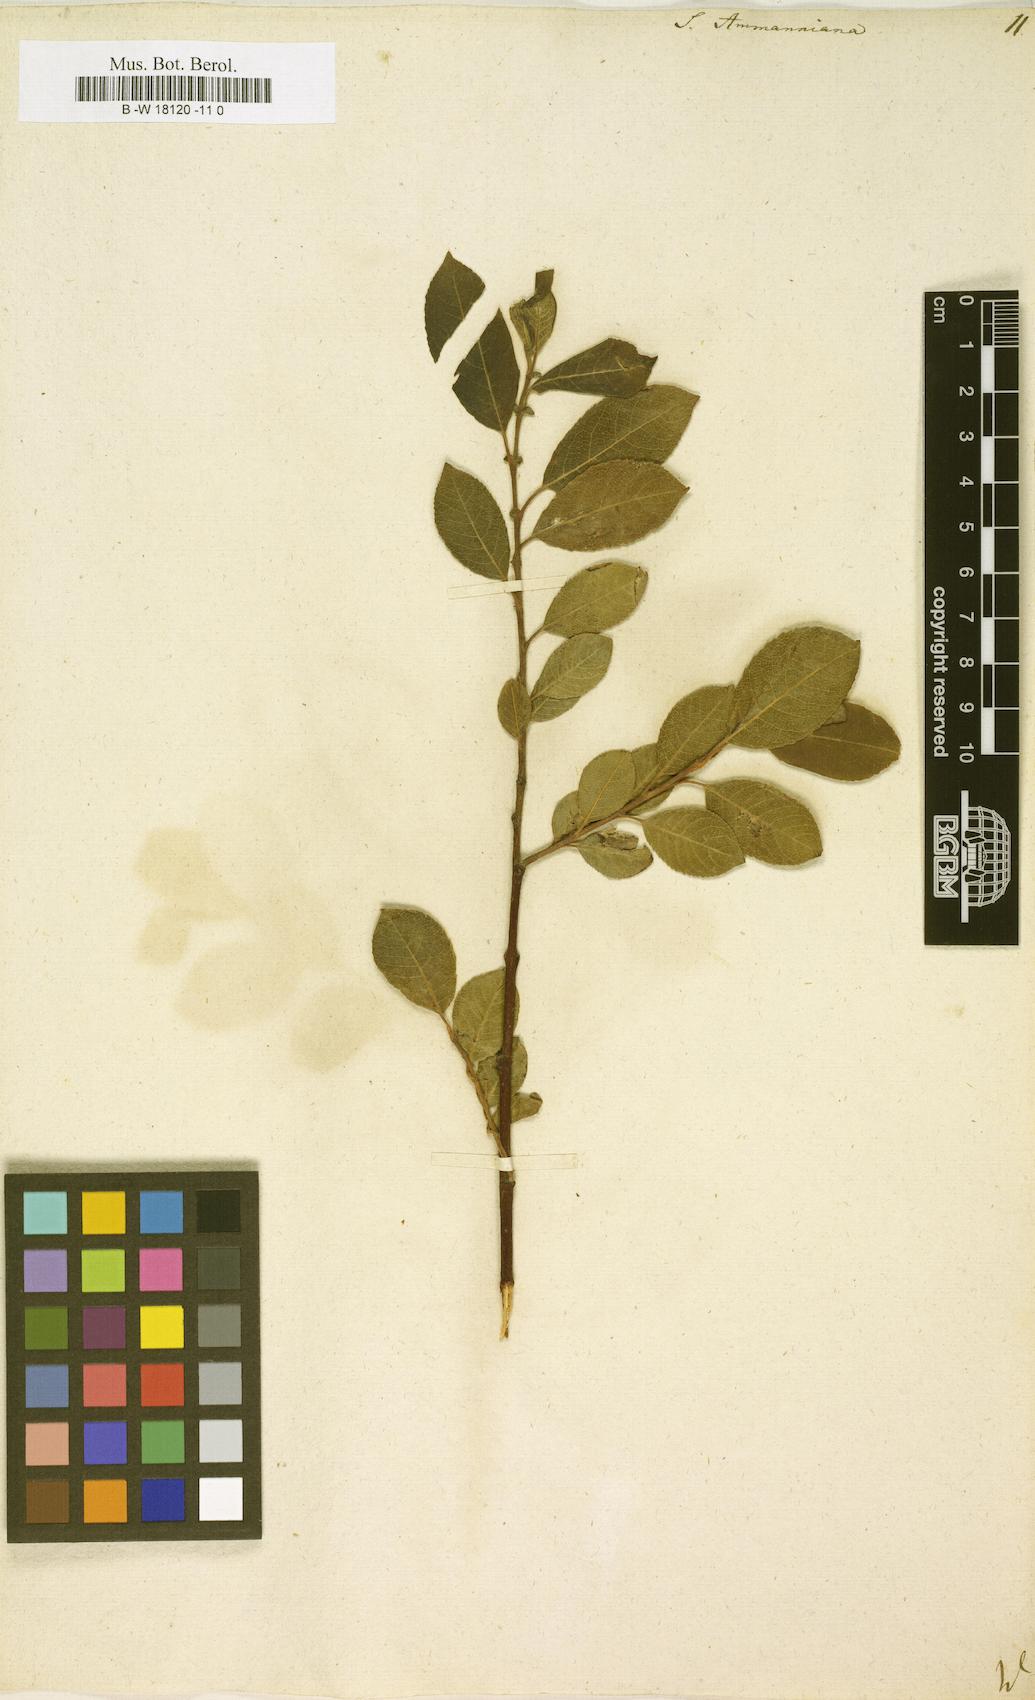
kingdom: Plantae
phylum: Tracheophyta
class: Magnoliopsida
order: Malpighiales
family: Salicaceae
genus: Salix
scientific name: Salix myrsinifolia
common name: Dark-leaved willow
